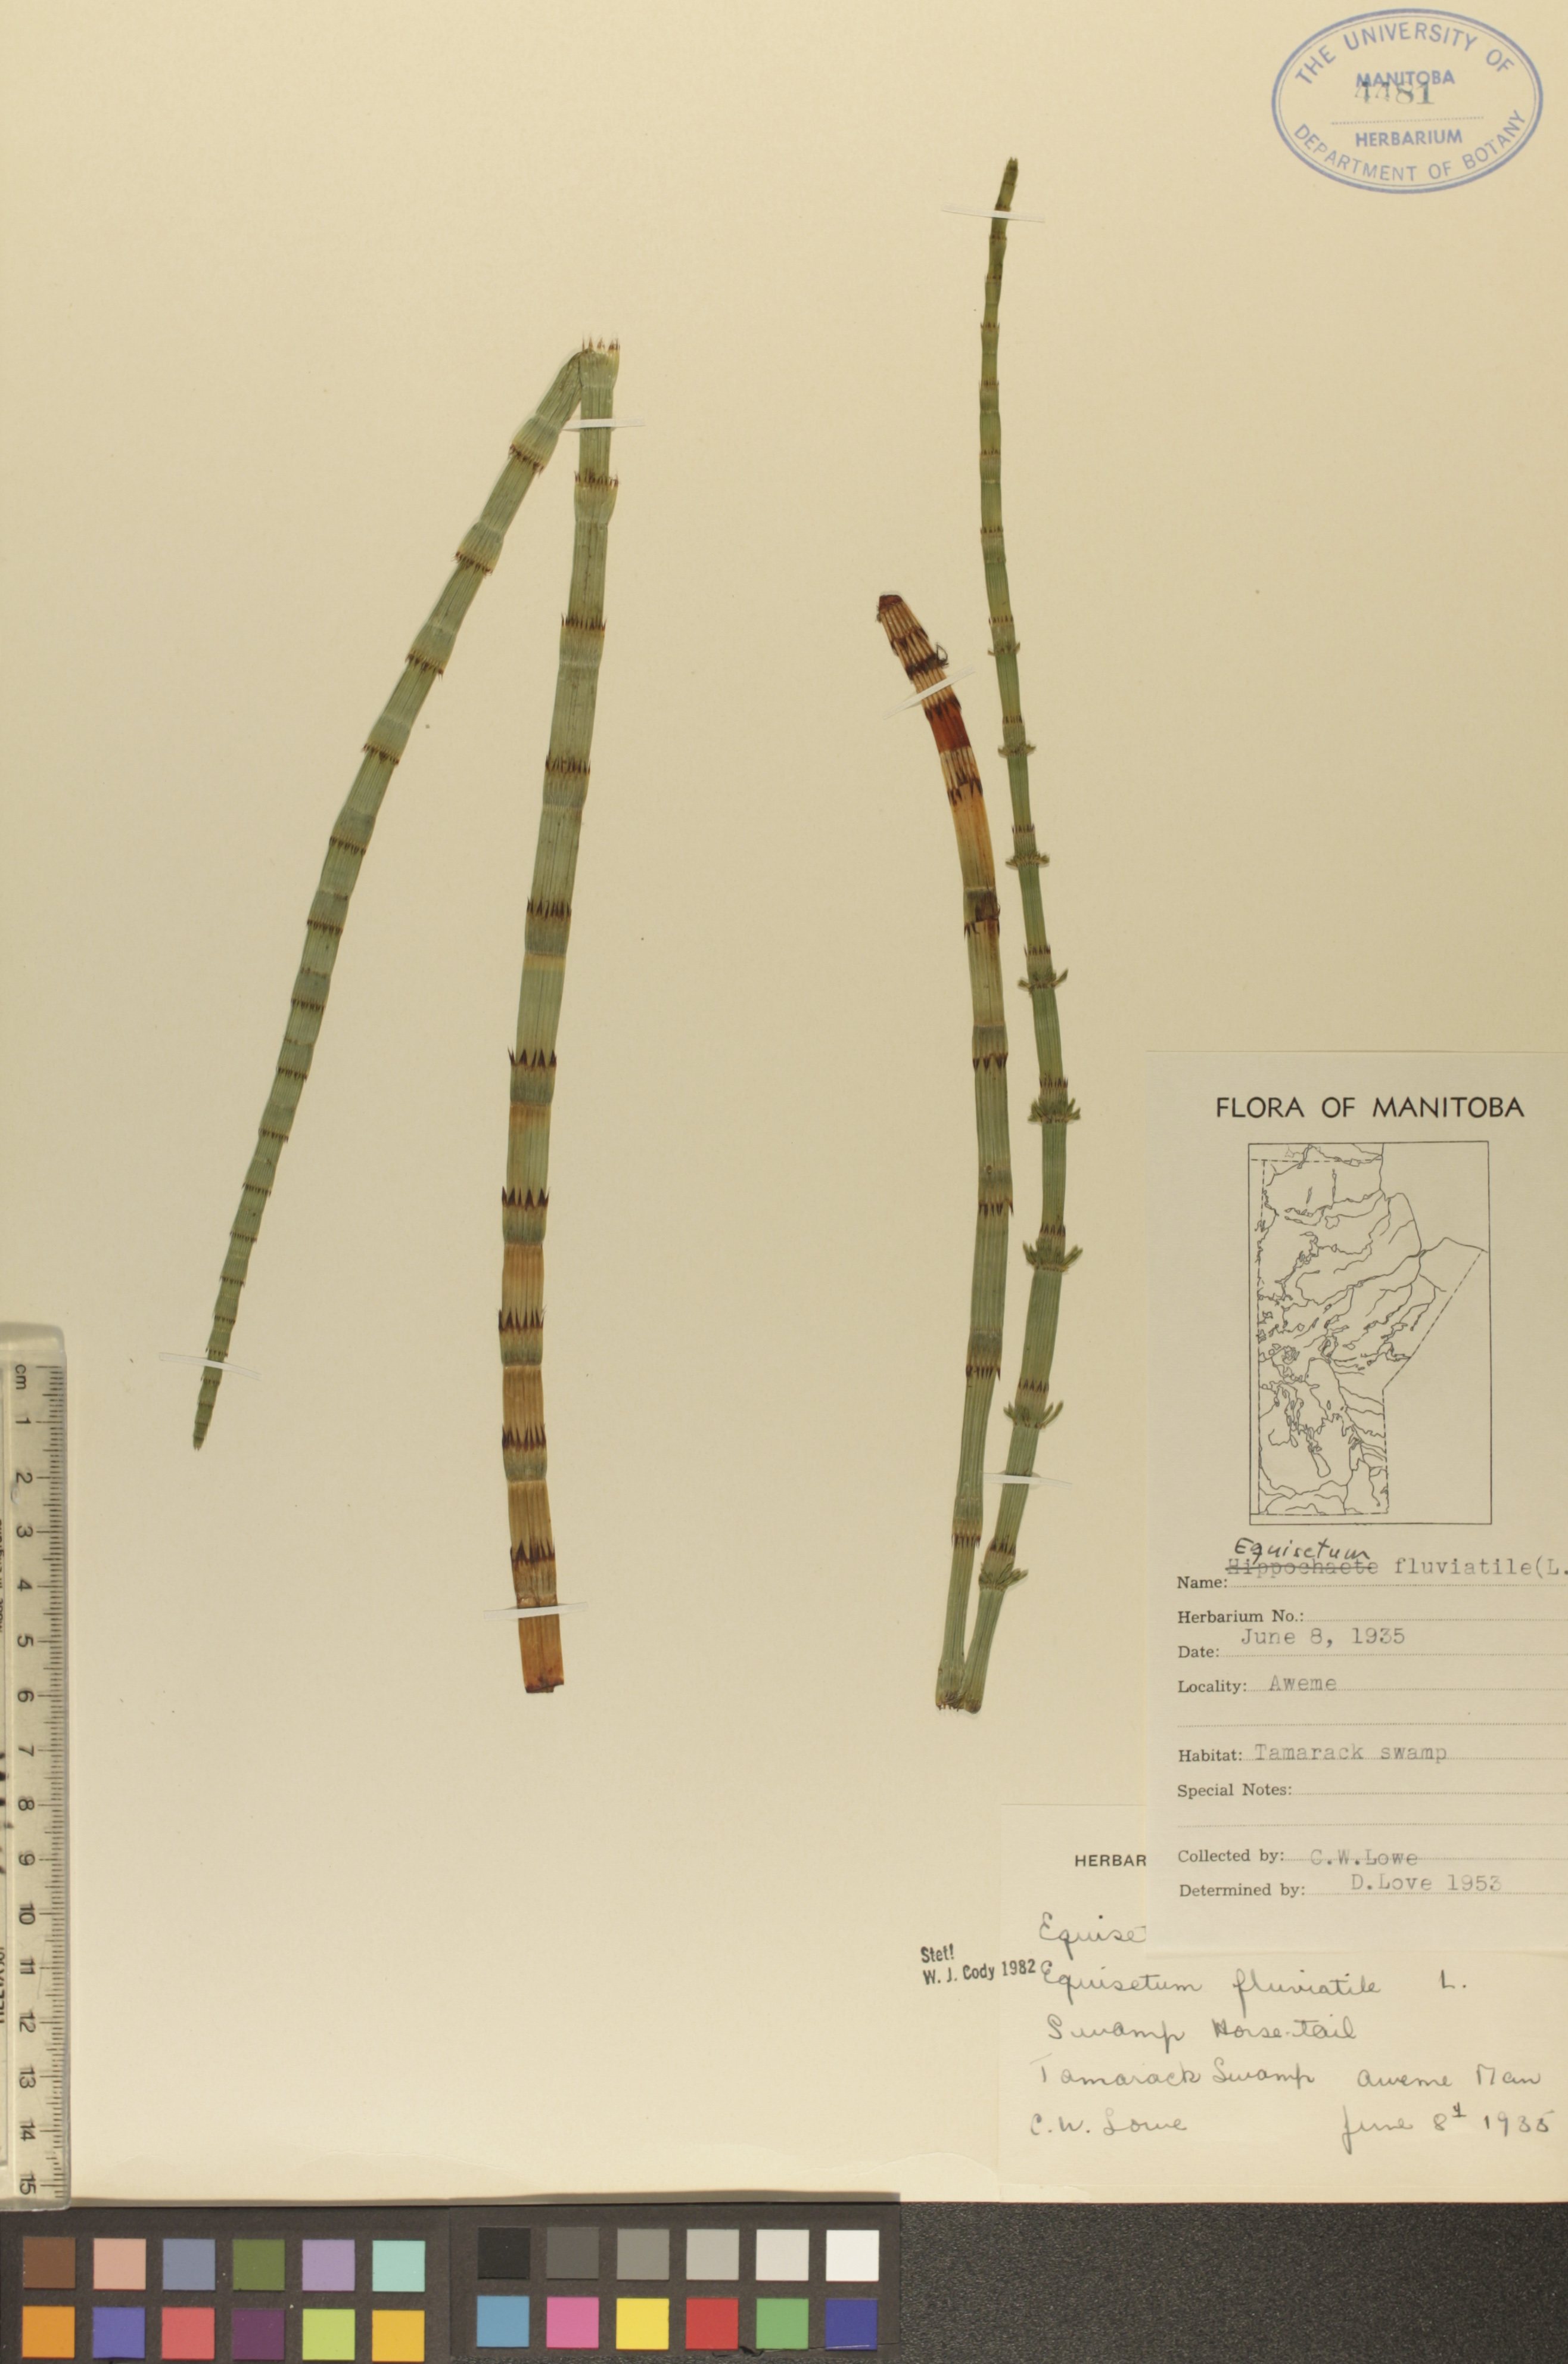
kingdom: Plantae
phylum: Tracheophyta
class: Polypodiopsida
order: Equisetales
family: Equisetaceae
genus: Equisetum
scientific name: Equisetum fluviatile
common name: Water horsetail
